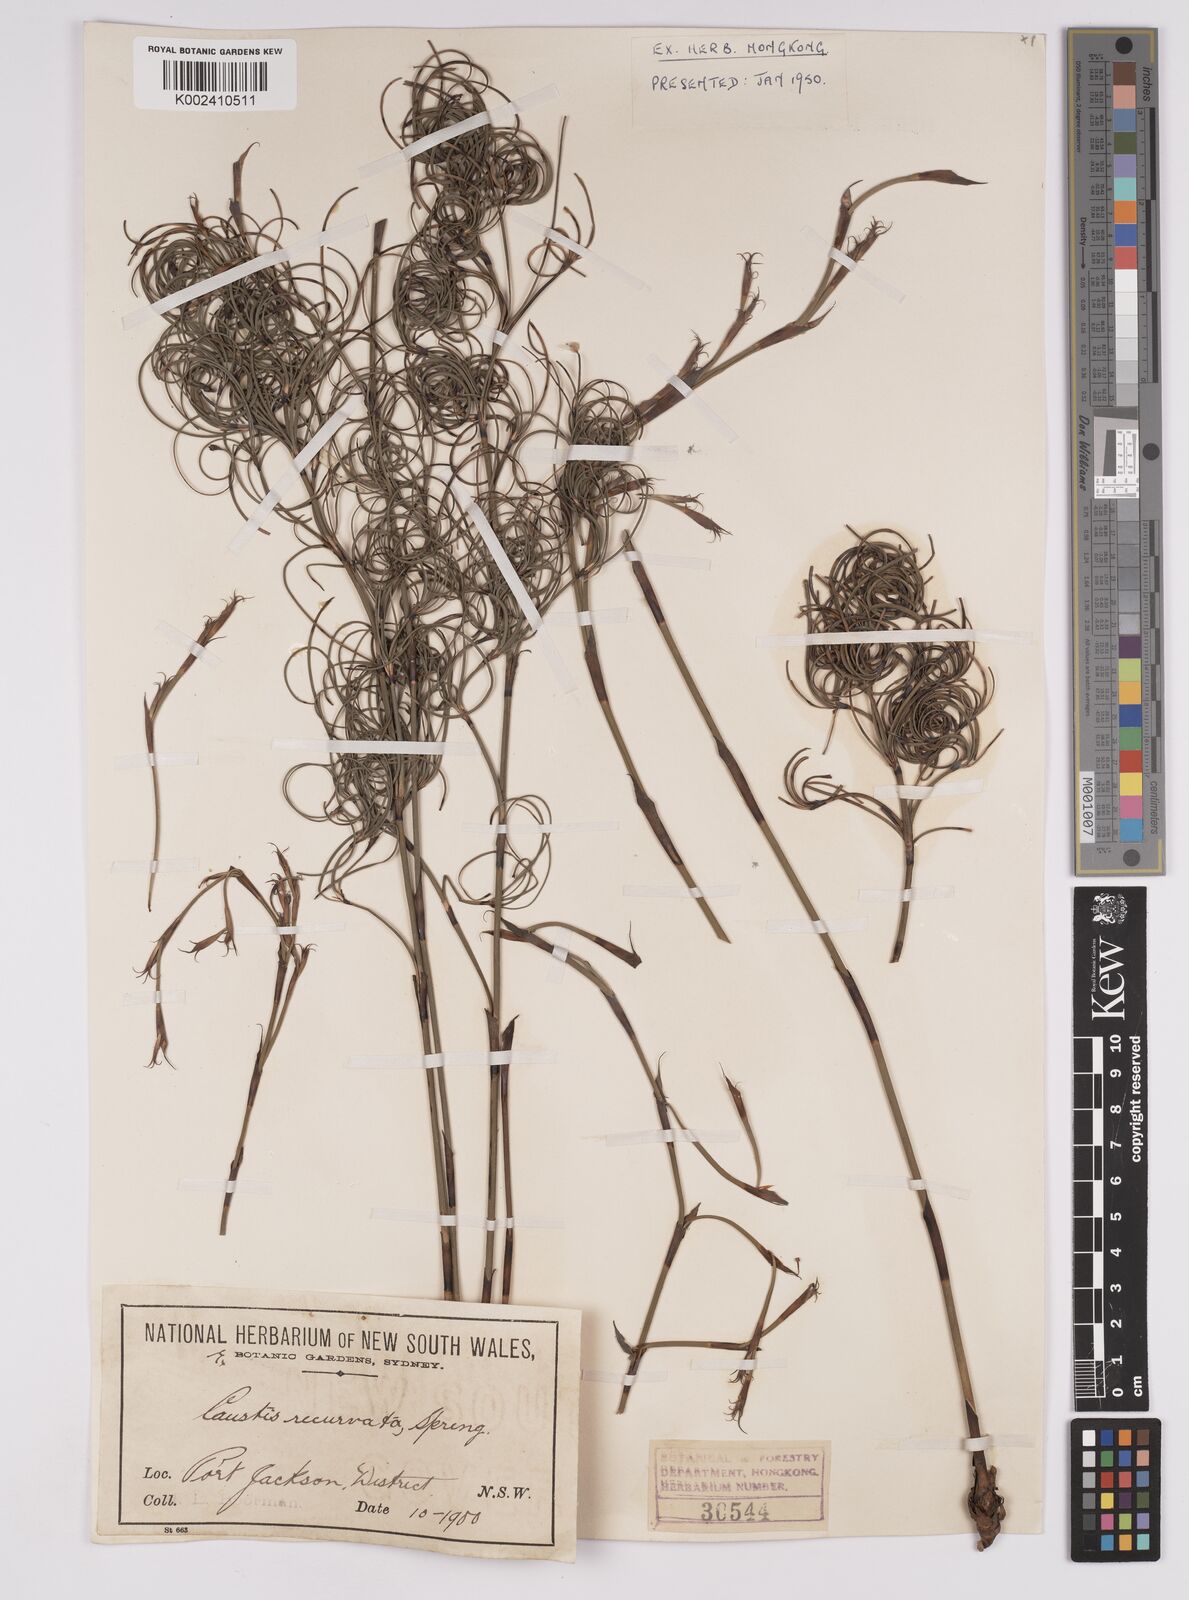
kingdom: Plantae
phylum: Tracheophyta
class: Liliopsida
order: Poales
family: Cyperaceae
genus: Caustis
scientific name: Caustis recurvata
